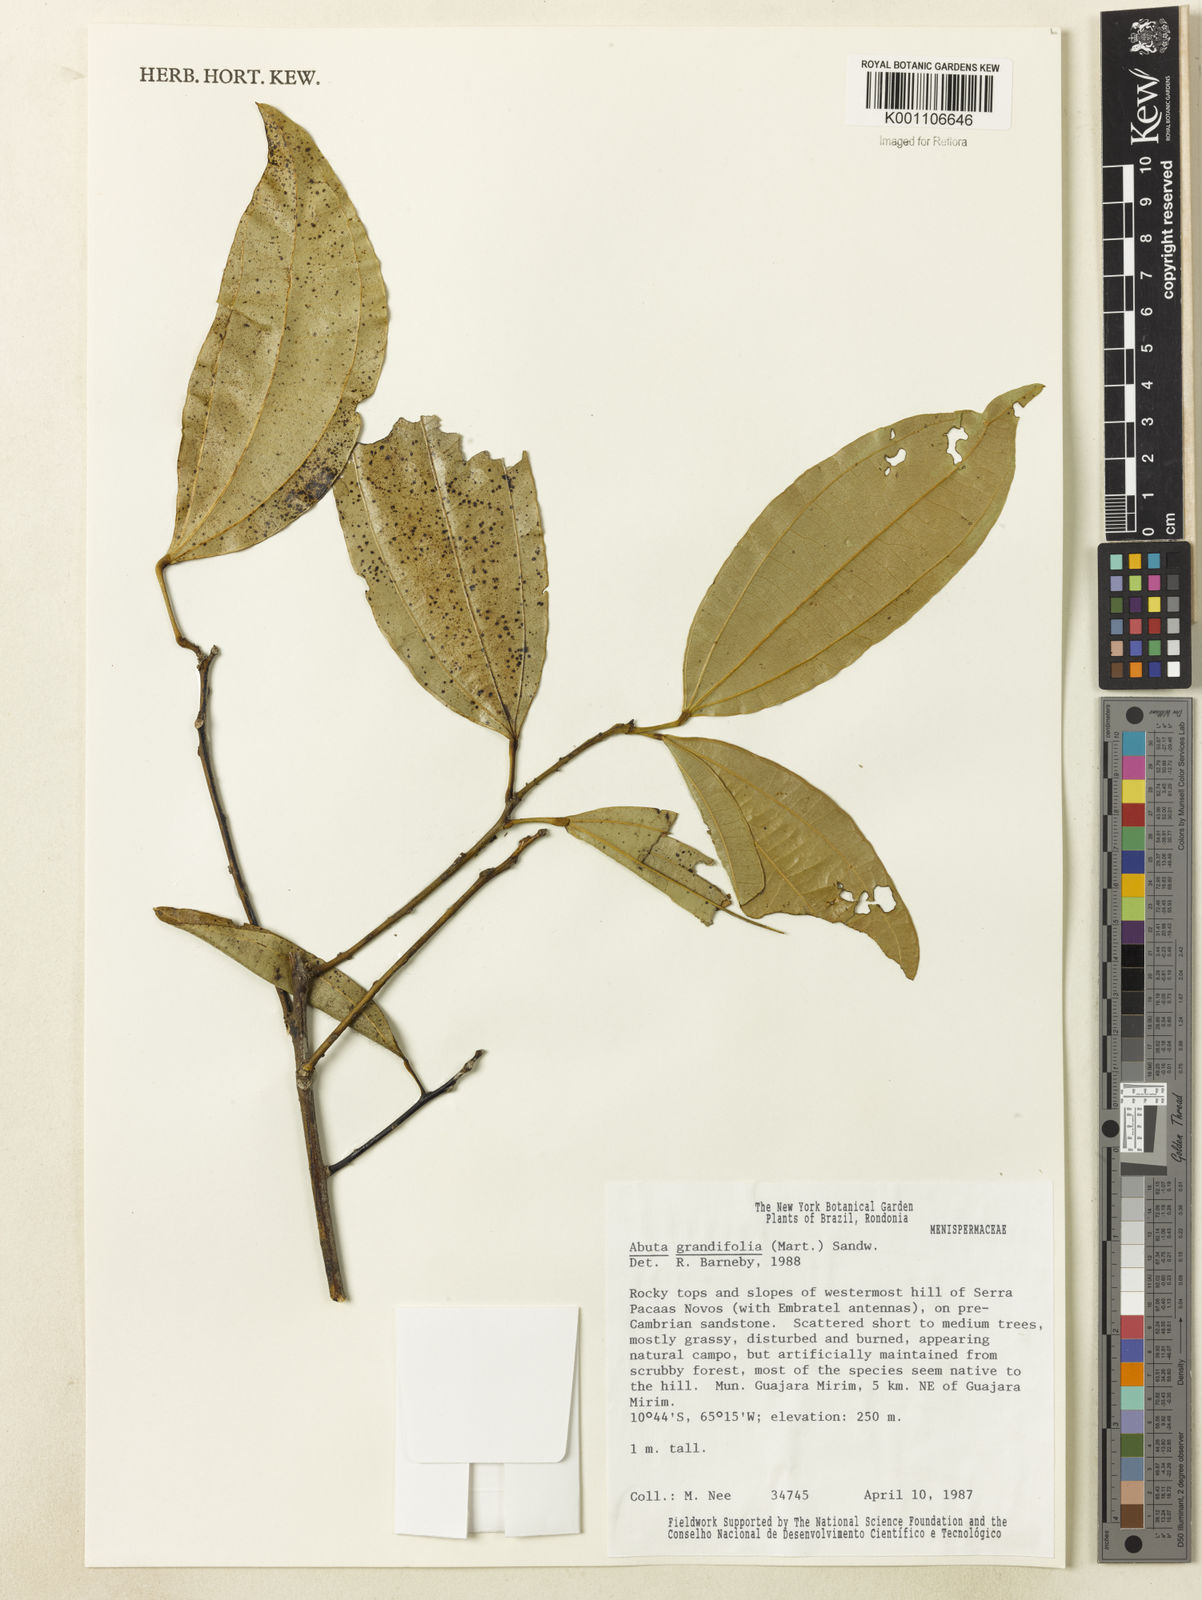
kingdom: Plantae
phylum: Tracheophyta
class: Magnoliopsida
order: Ranunculales
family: Menispermaceae
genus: Abuta
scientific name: Abuta grandifolia
